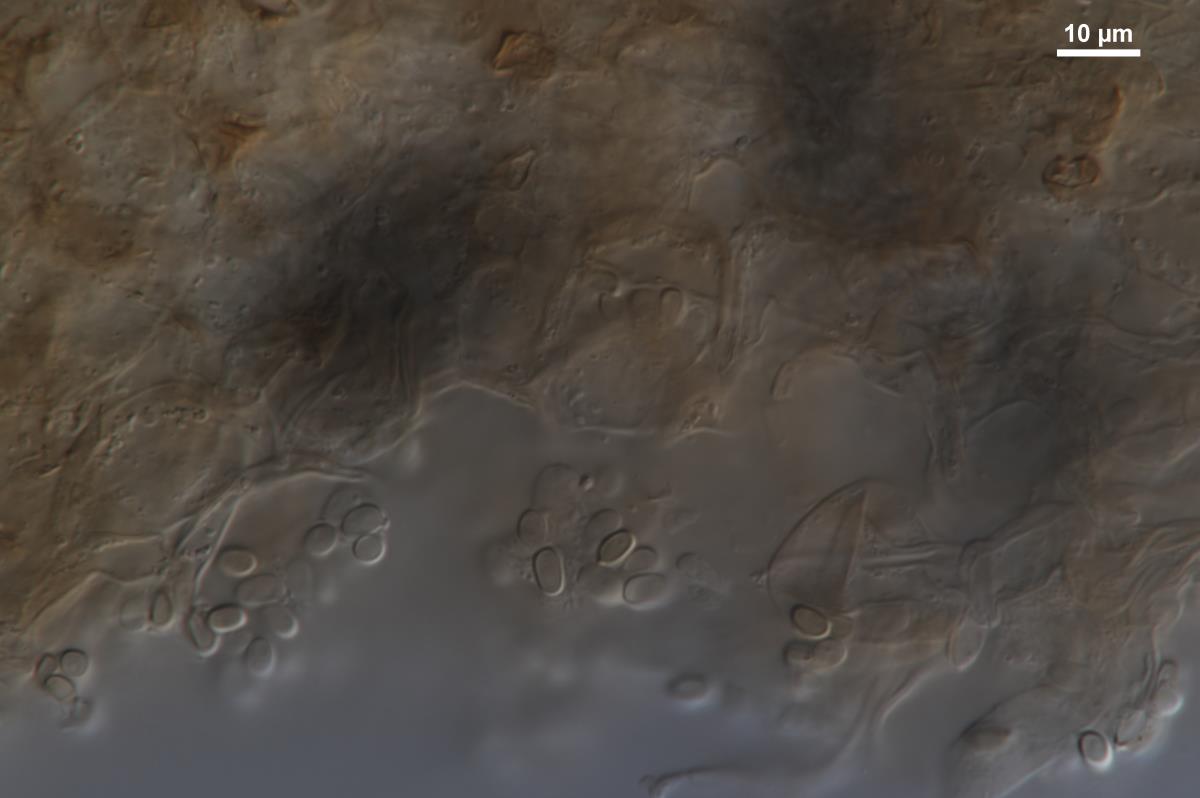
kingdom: Fungi
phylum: Basidiomycota
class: Agaricomycetes
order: Agaricales
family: Tricholomataceae
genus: Dermoloma
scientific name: Dermoloma
